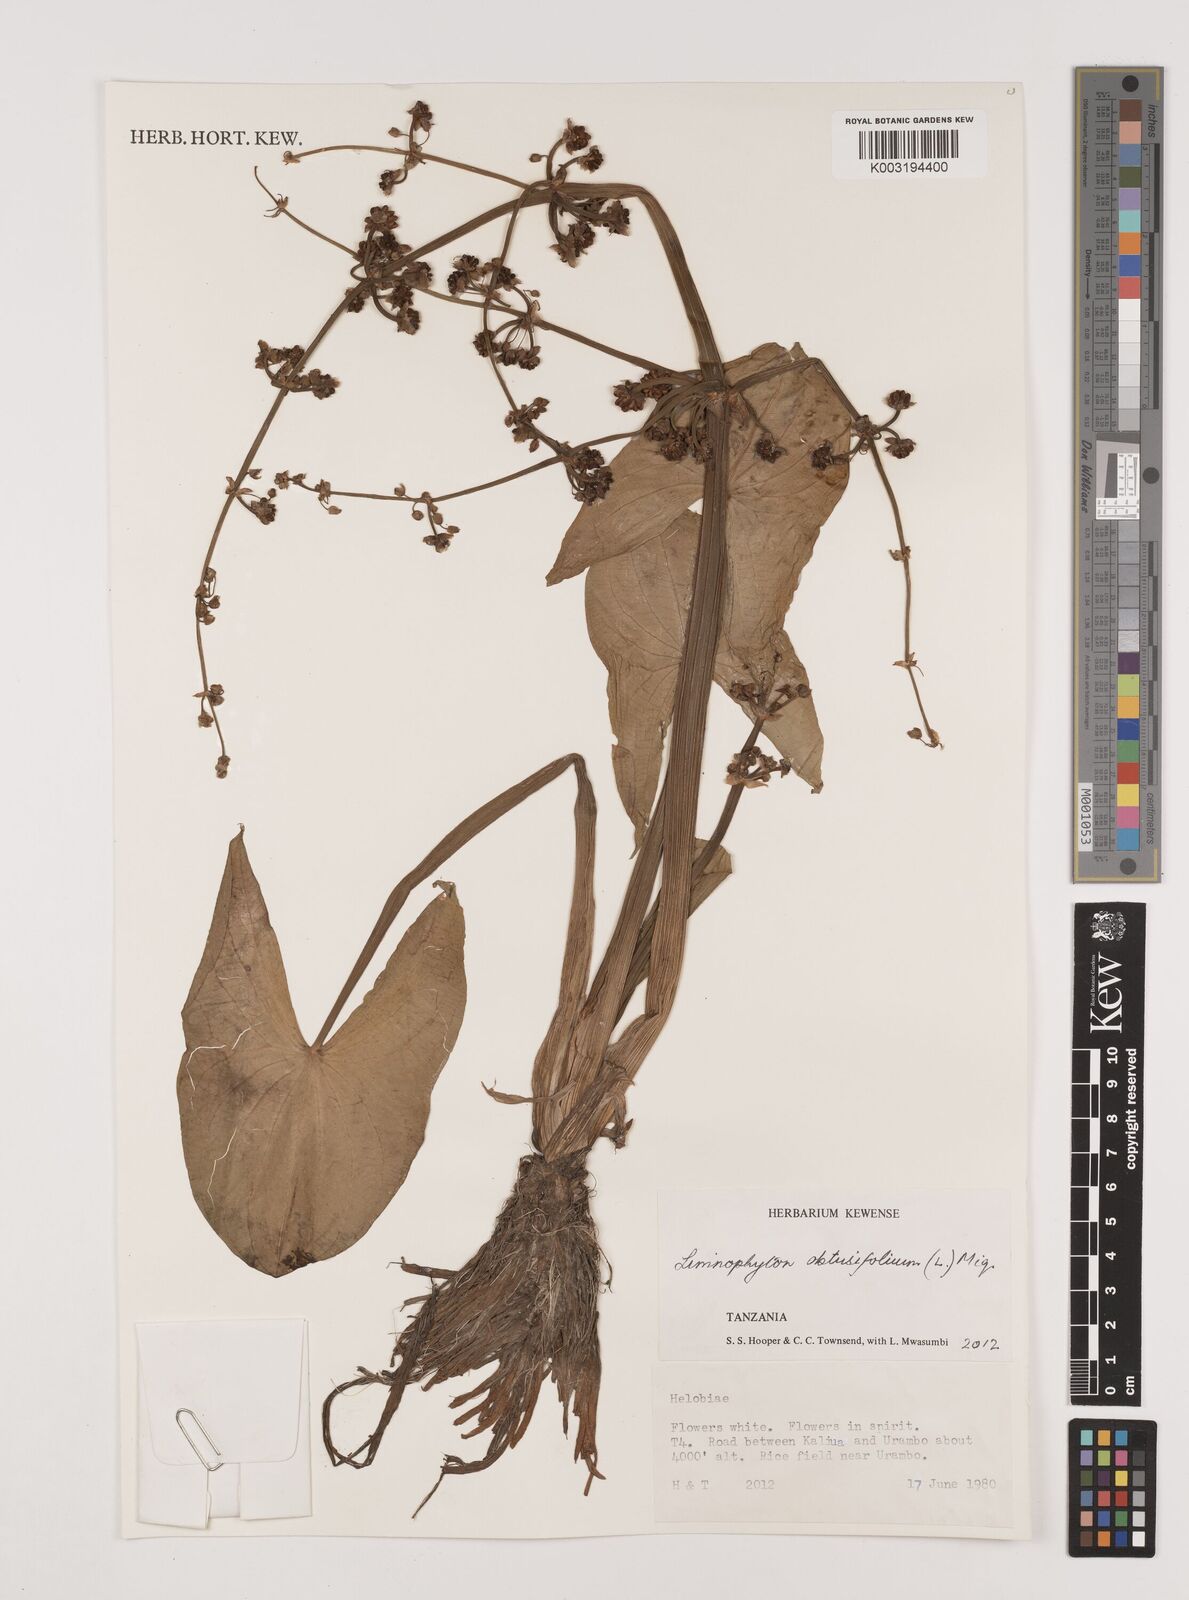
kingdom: Plantae
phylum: Tracheophyta
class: Liliopsida
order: Alismatales
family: Alismataceae
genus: Limnophyton
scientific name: Limnophyton obtusifolium
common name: Arrow head
